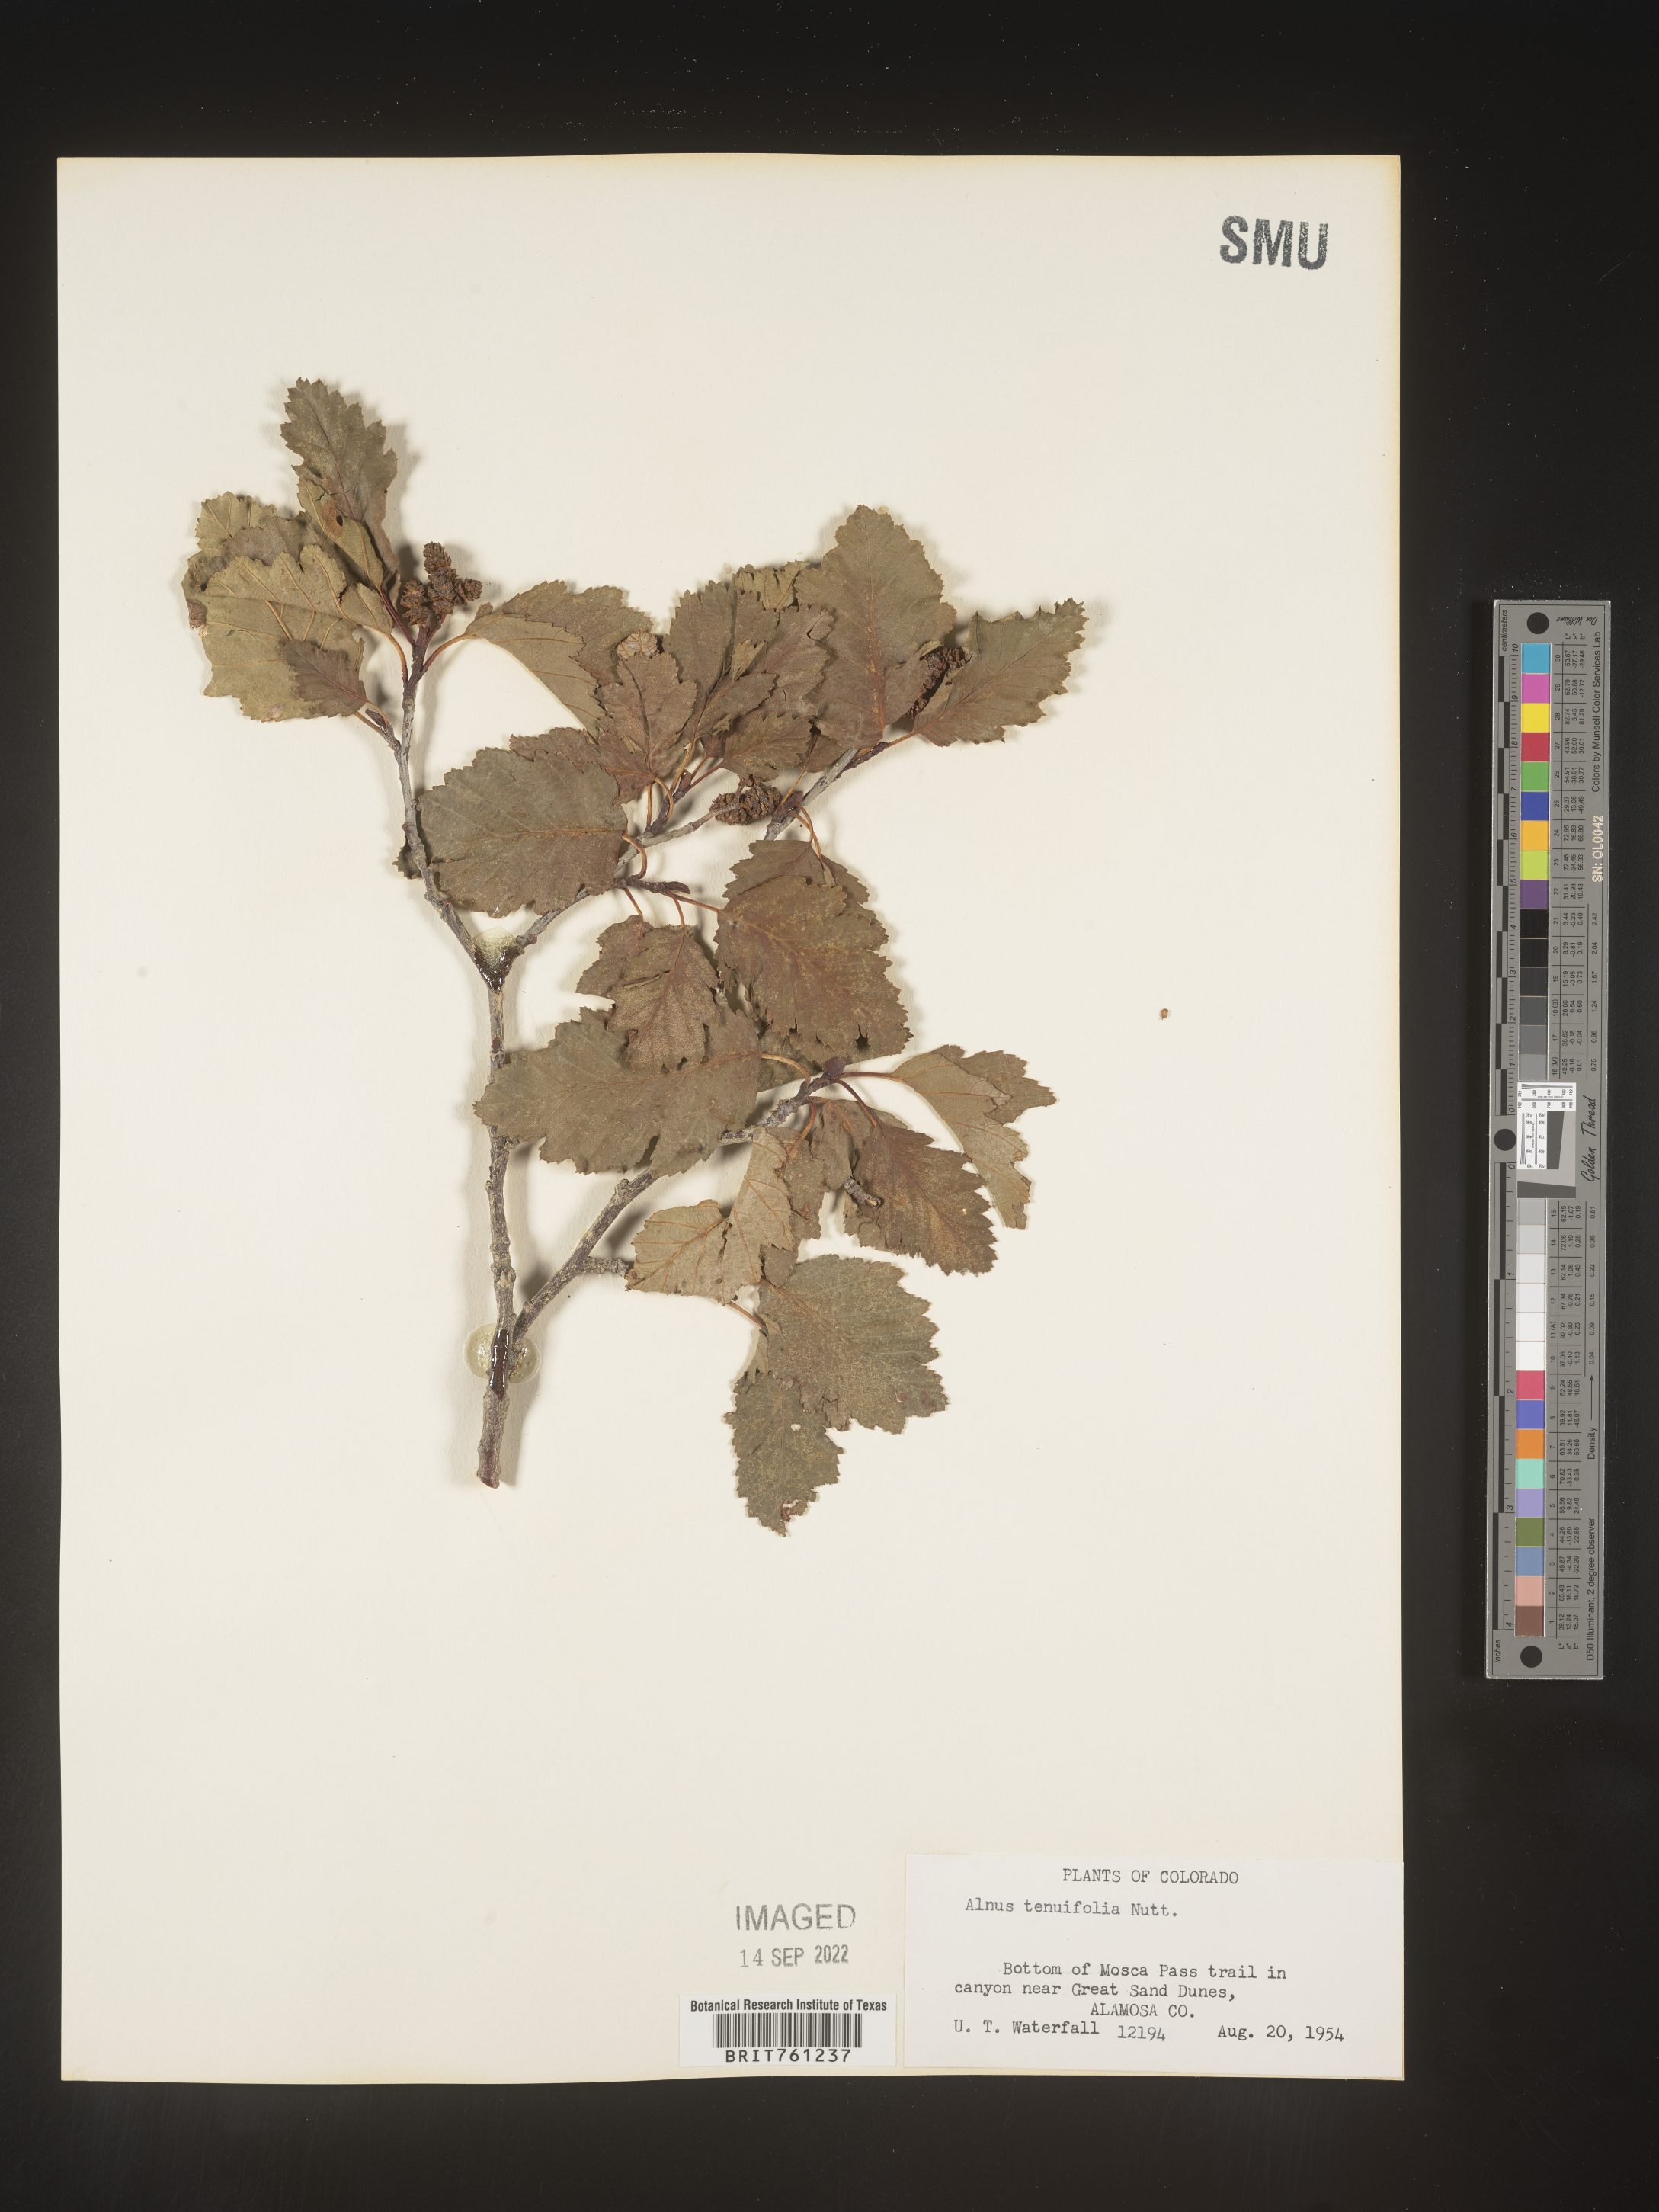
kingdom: Plantae
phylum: Tracheophyta
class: Magnoliopsida
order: Fagales
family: Betulaceae
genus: Alnus
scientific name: Alnus incana
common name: Grey alder
